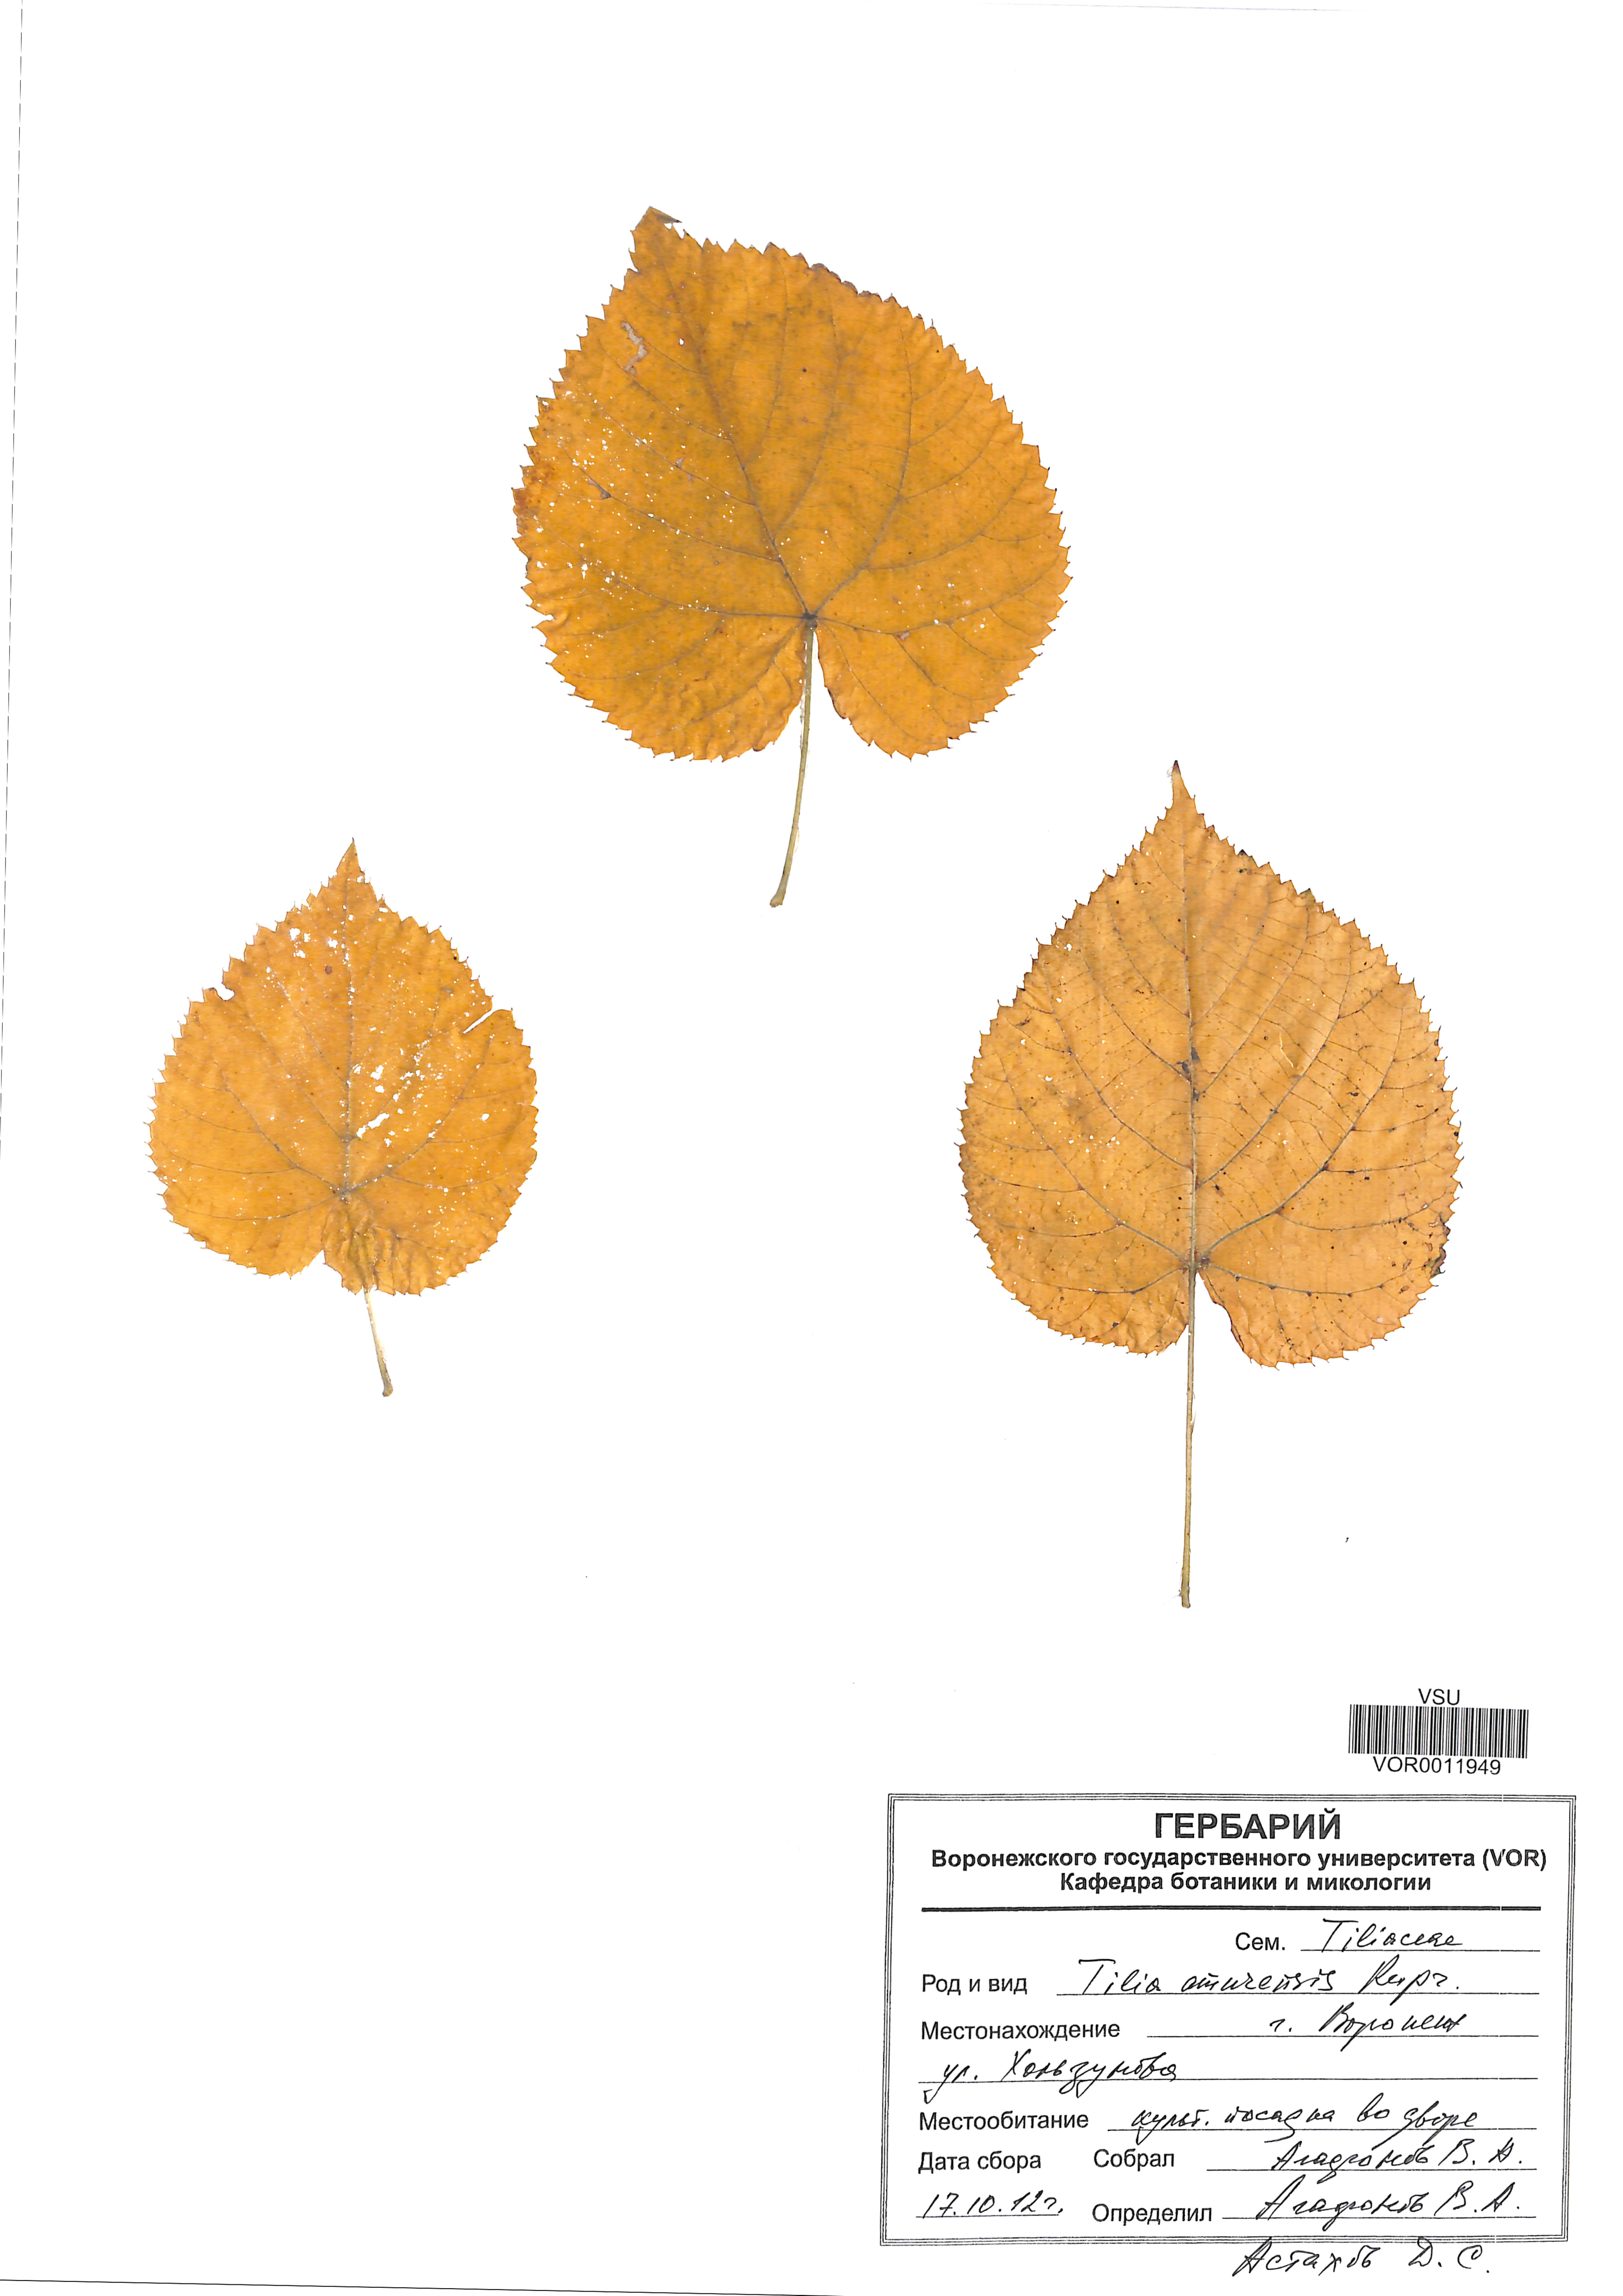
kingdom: Plantae
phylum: Tracheophyta
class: Magnoliopsida
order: Malvales
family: Malvaceae
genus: Tilia
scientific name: Tilia amurensis
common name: Amur lime
